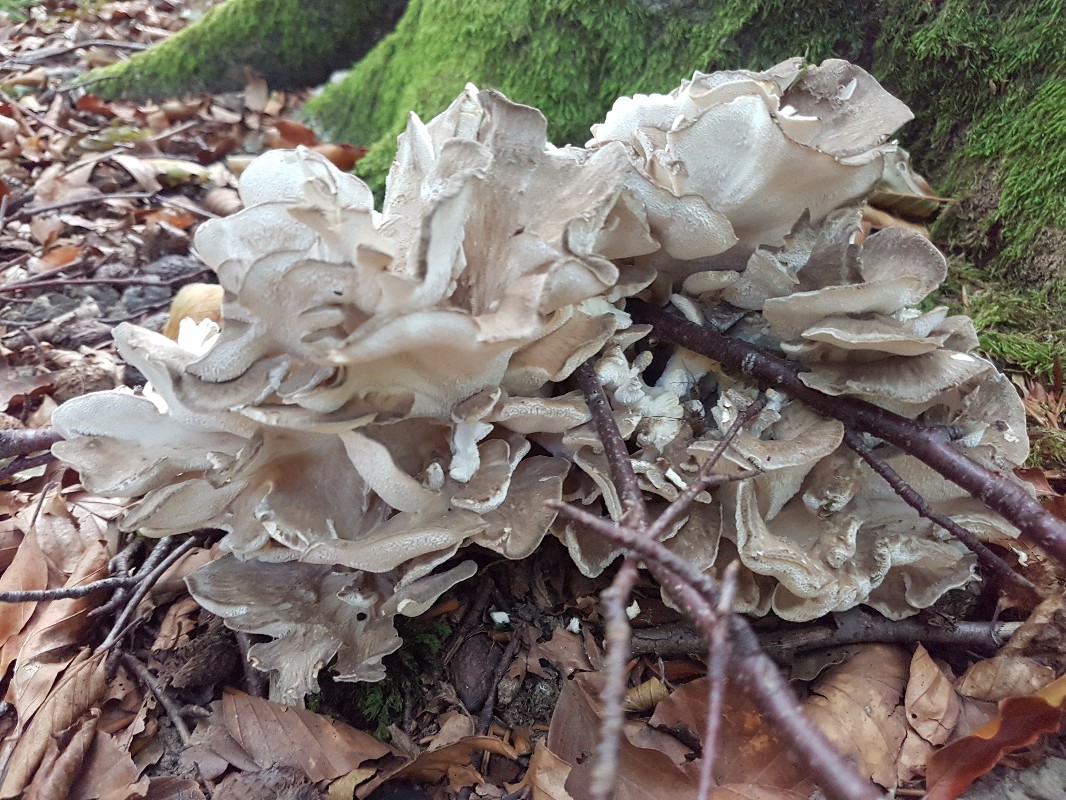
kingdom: Fungi
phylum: Basidiomycota
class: Agaricomycetes
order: Polyporales
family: Grifolaceae
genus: Grifola
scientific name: Grifola frondosa
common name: tueporesvamp
